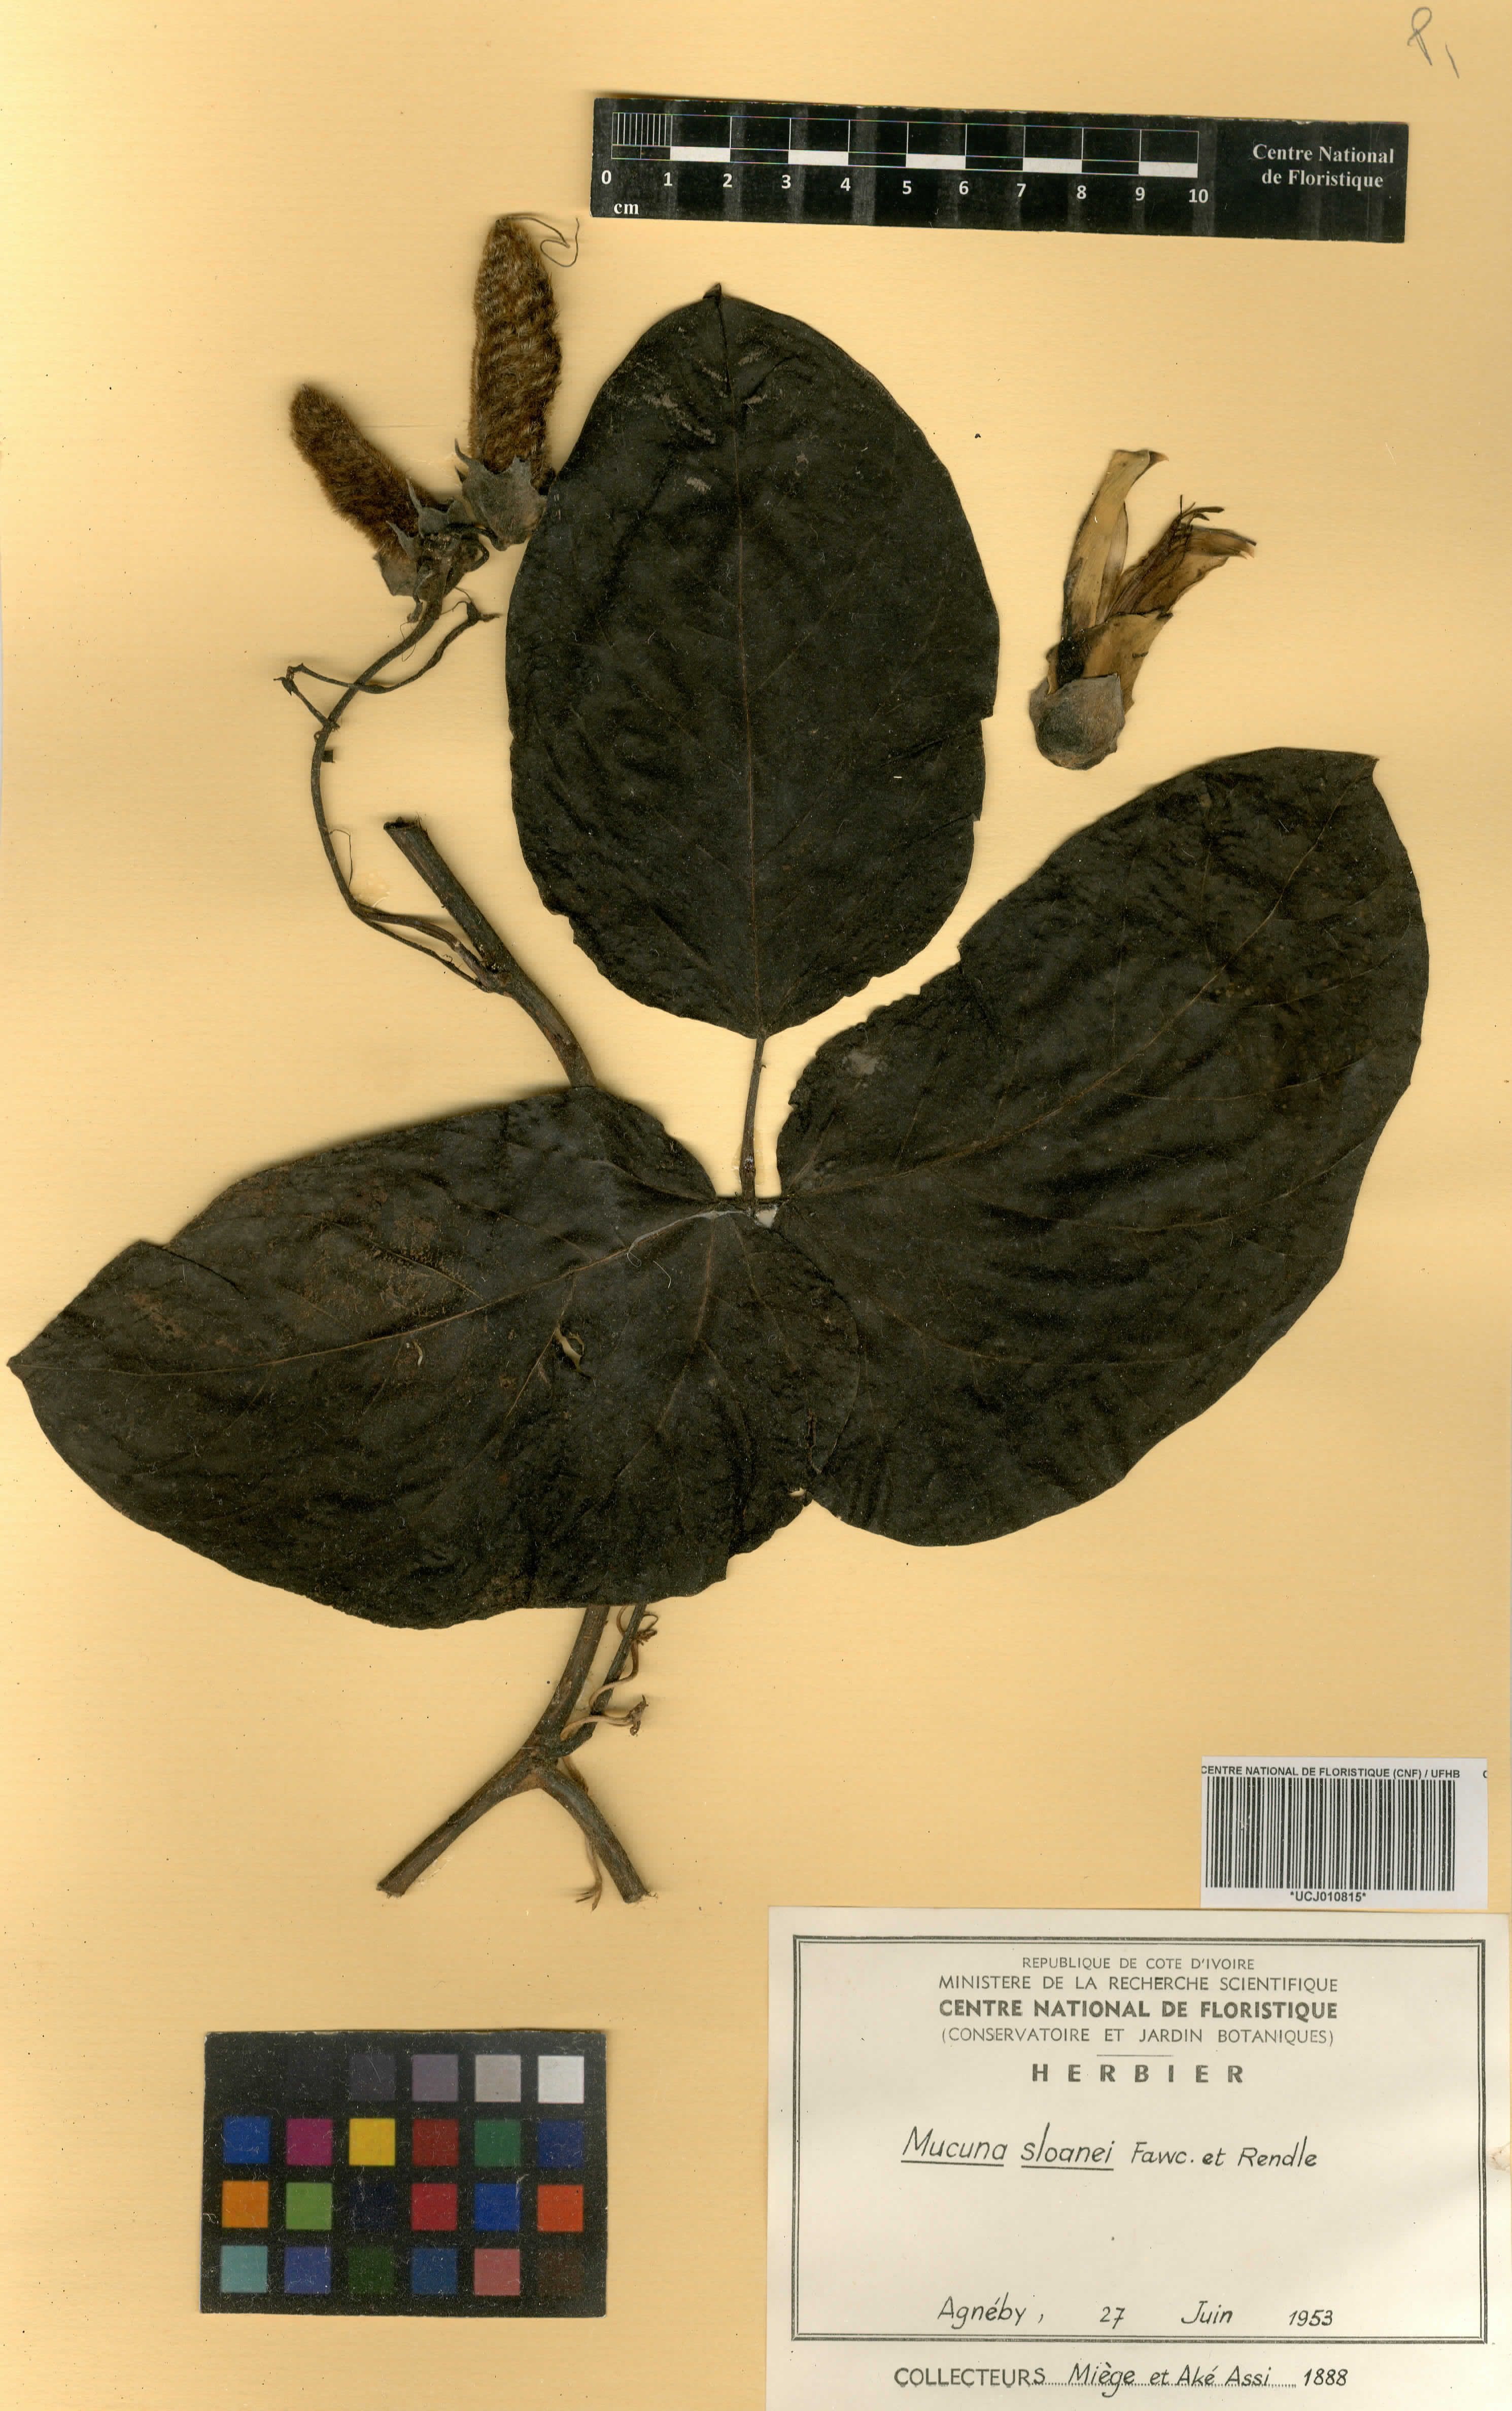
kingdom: Plantae
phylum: Tracheophyta
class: Magnoliopsida
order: Fabales
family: Fabaceae
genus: Mucuna
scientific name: Mucuna sloanei
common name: Horse-eye bean
